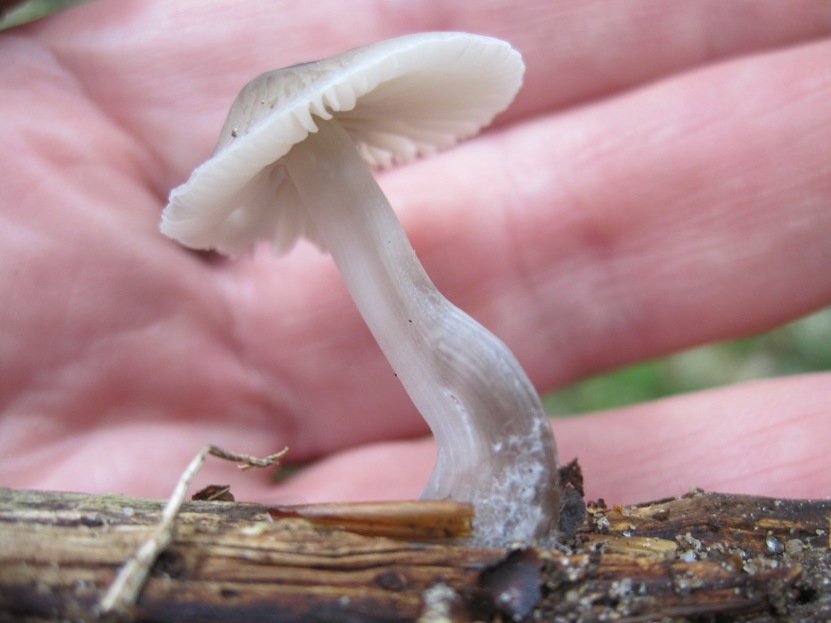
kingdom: Fungi
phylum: Basidiomycota
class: Agaricomycetes
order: Agaricales
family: Mycenaceae
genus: Mycena
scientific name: Mycena galericulata
